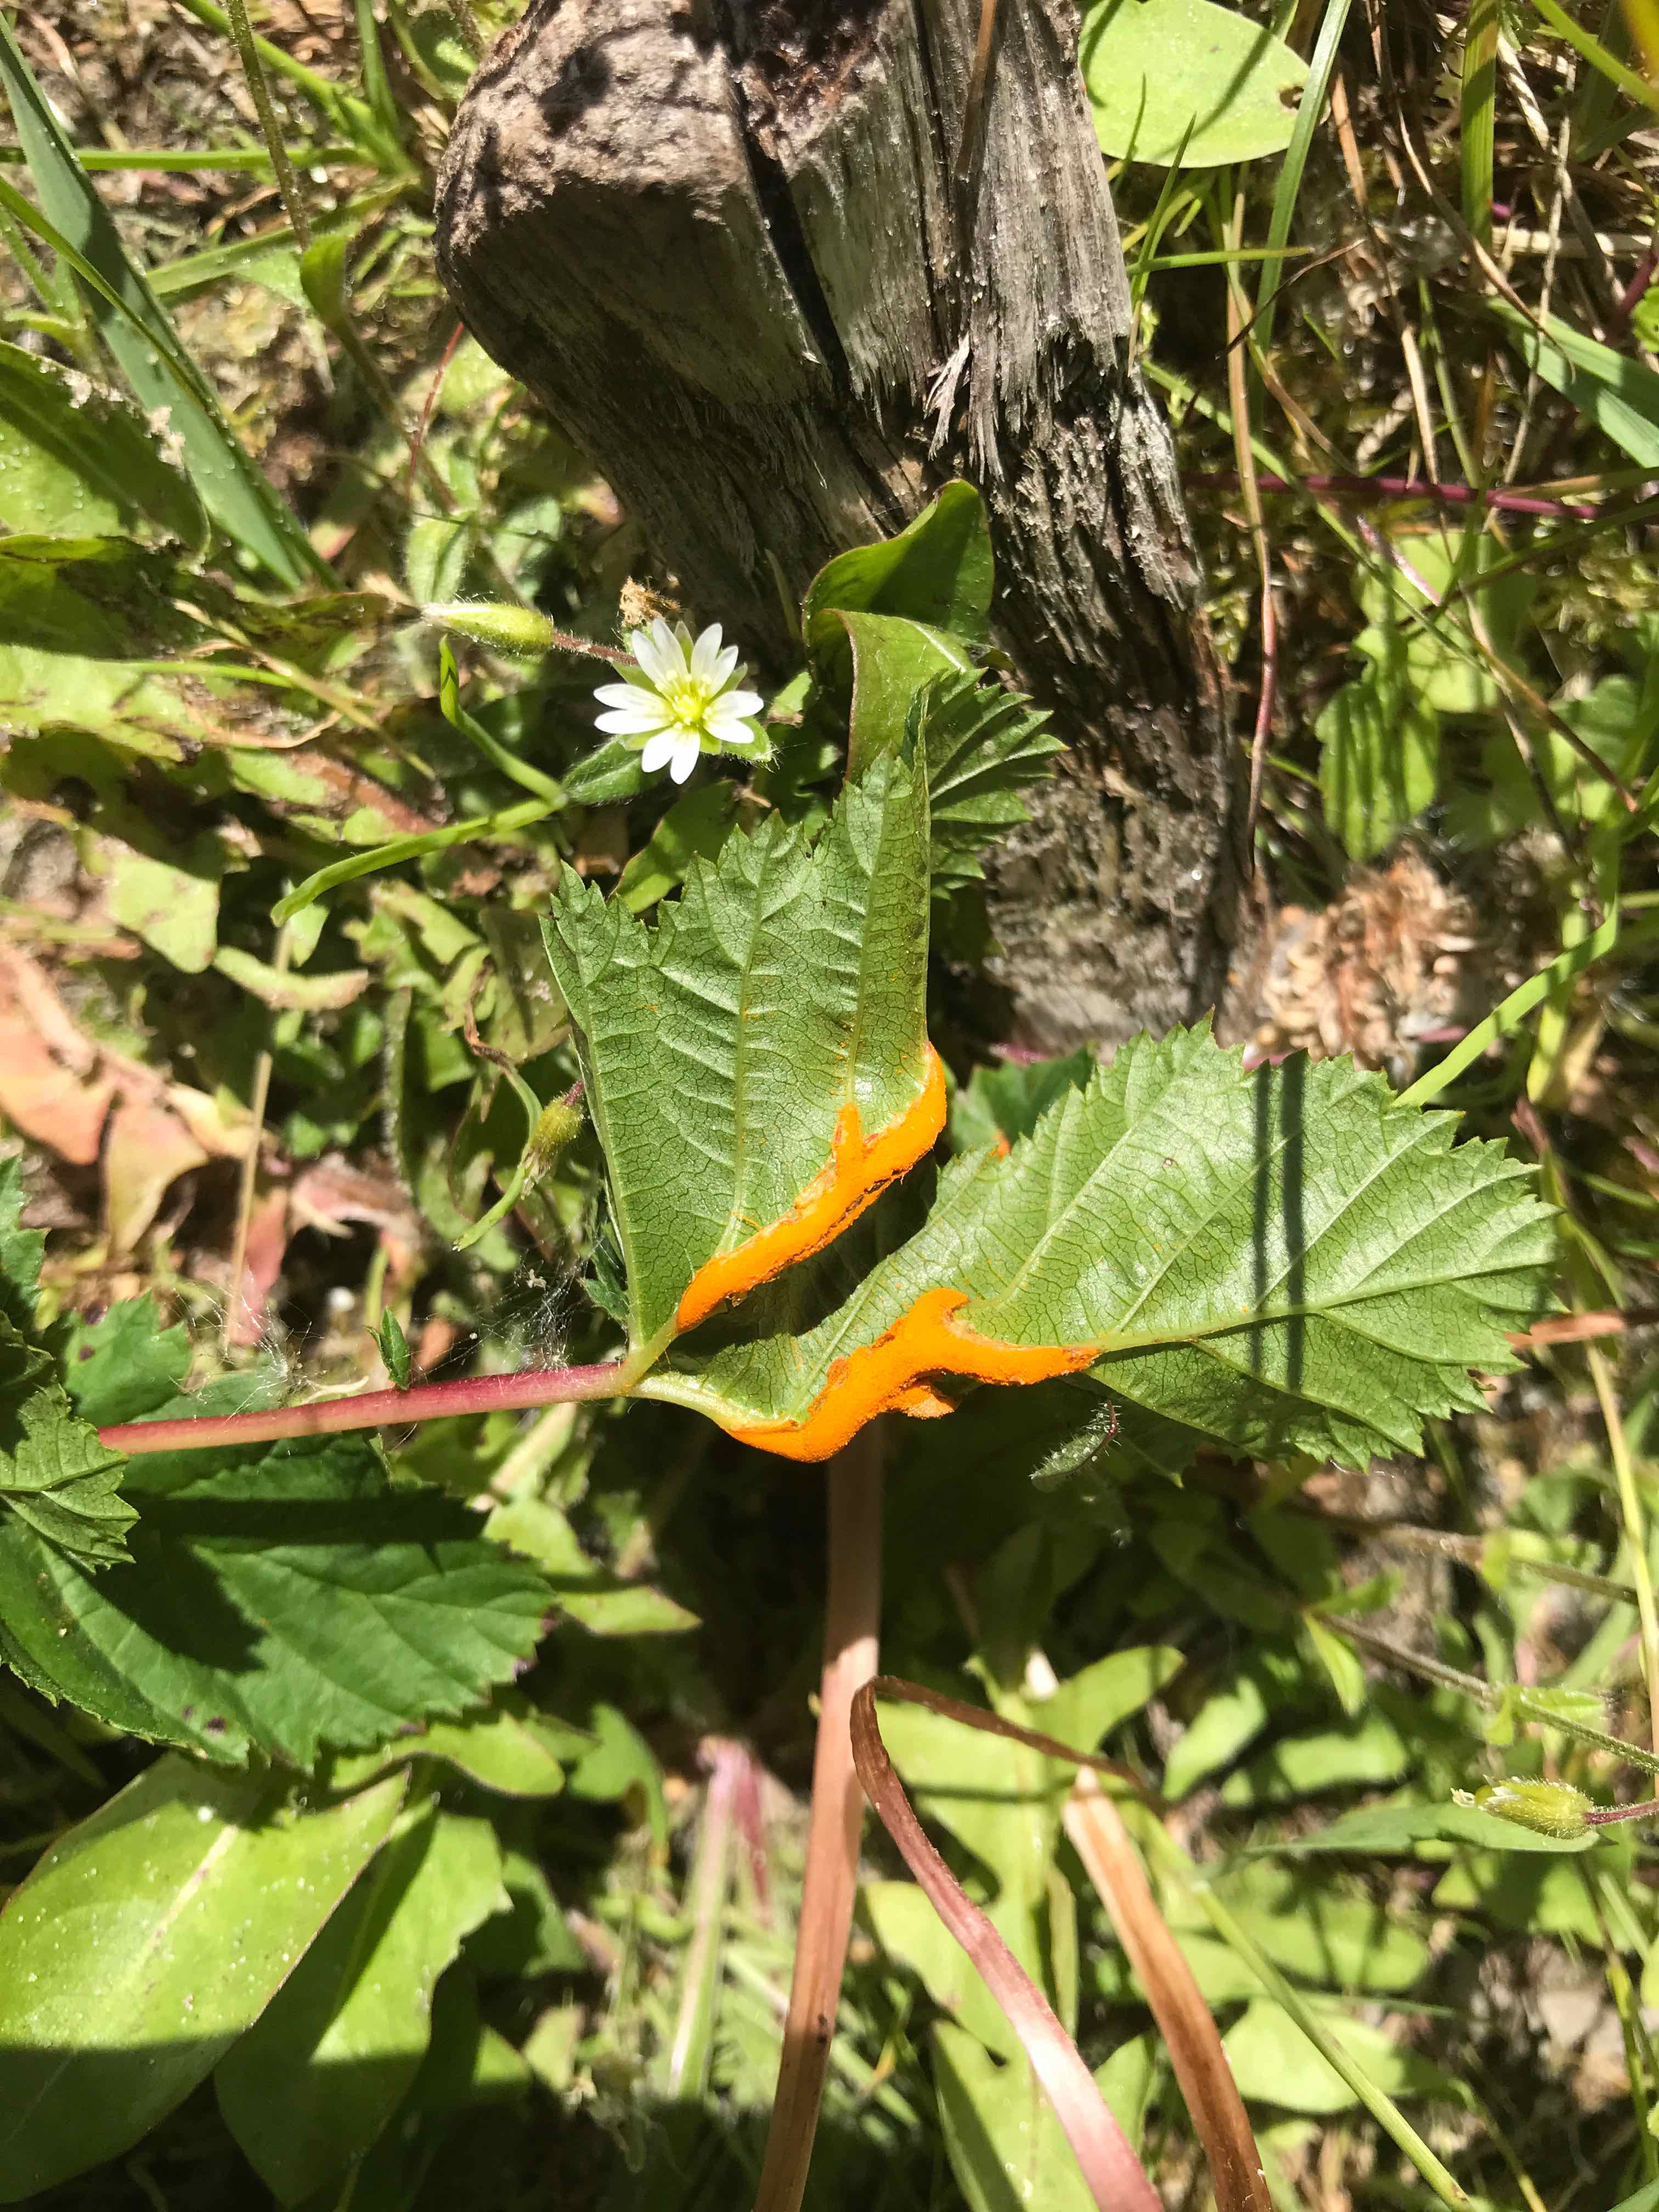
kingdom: Fungi
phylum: Basidiomycota
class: Pucciniomycetes
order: Pucciniales
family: Raveneliaceae
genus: Triphragmium
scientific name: Triphragmium ulmariae
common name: almindelig mjødurtrust
